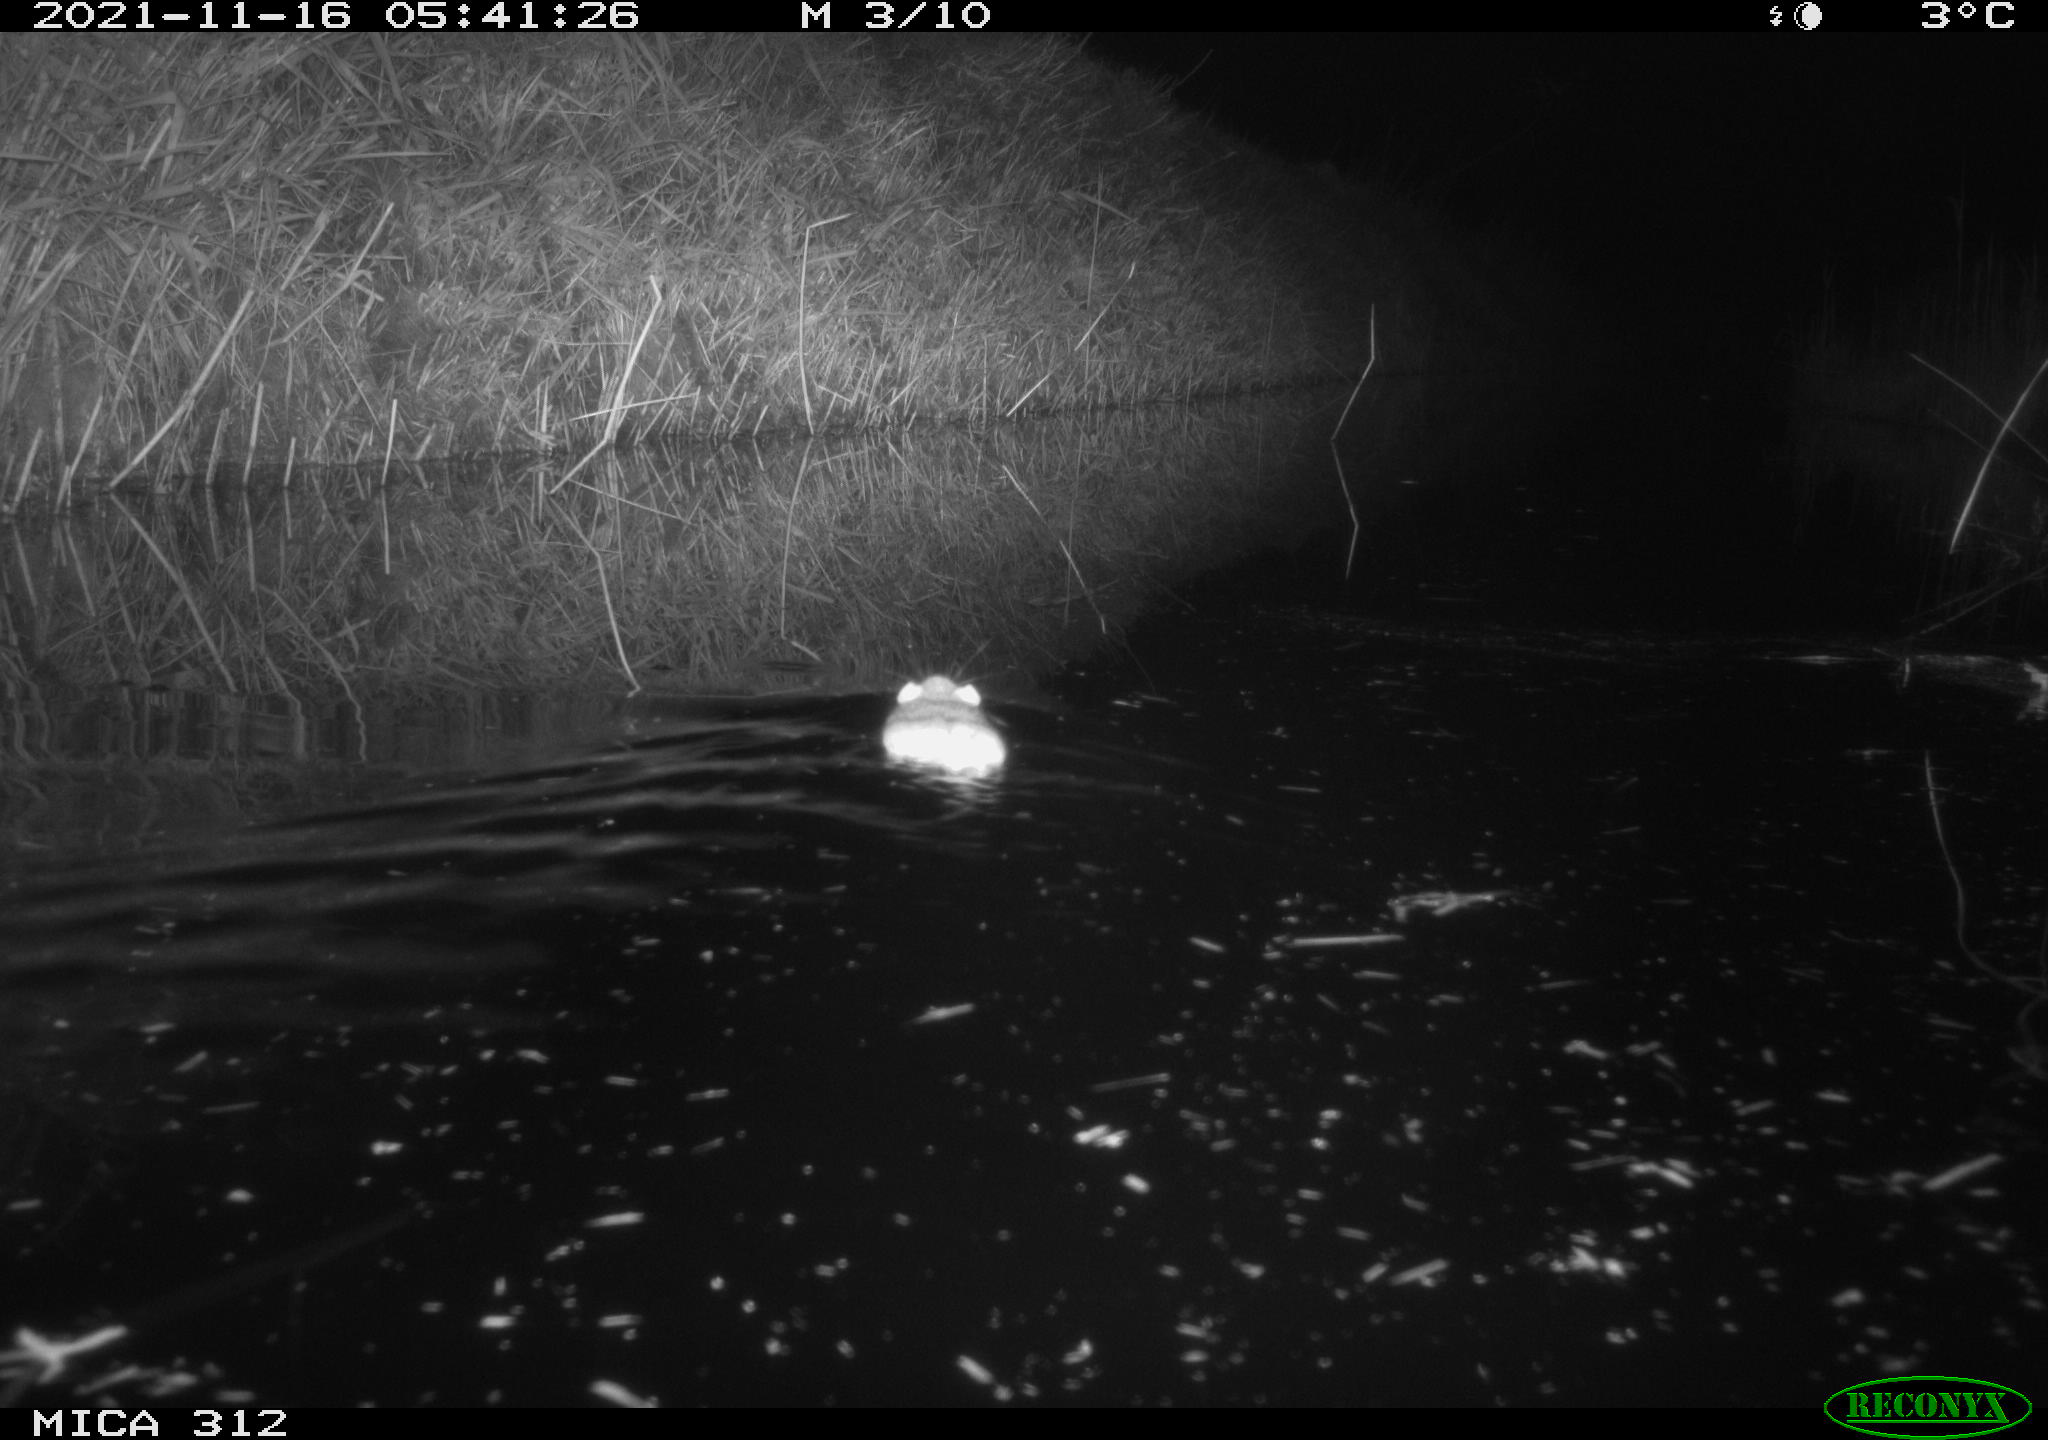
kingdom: Animalia
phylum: Chordata
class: Mammalia
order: Rodentia
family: Muridae
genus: Rattus
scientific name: Rattus norvegicus
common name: Brown rat
